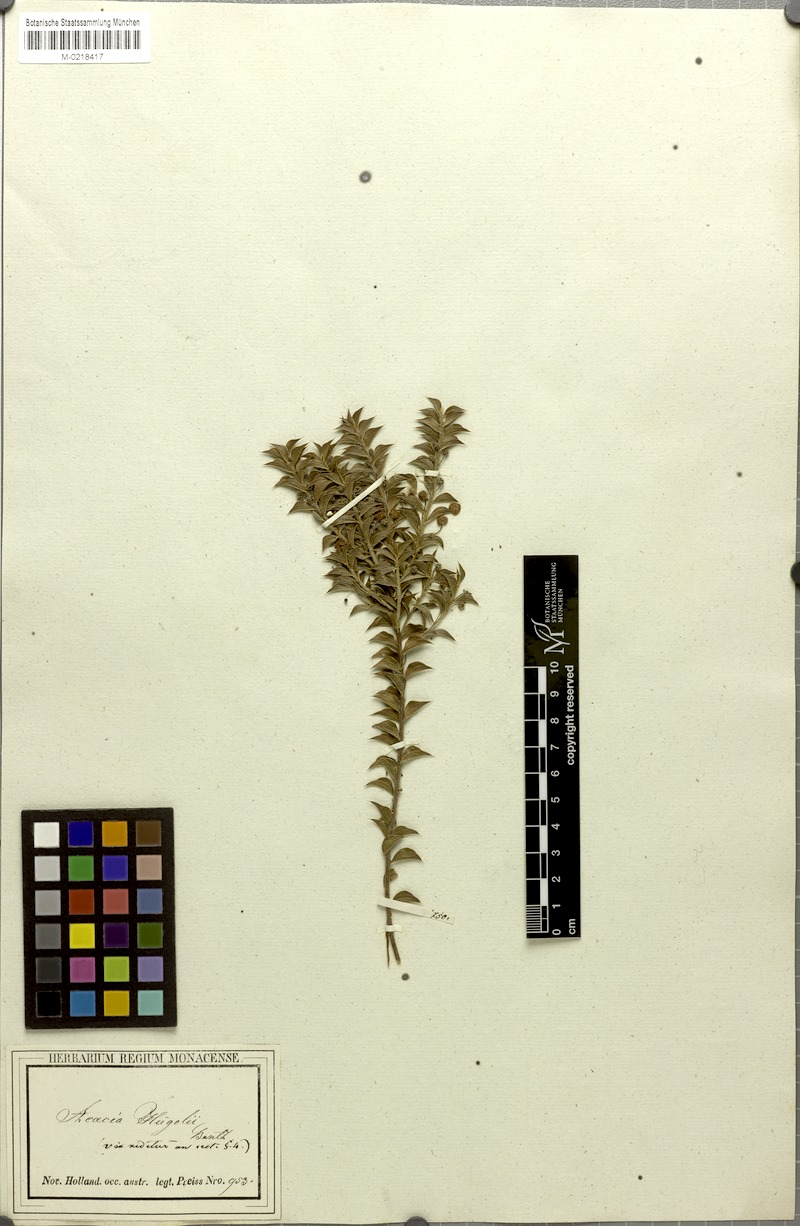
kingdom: Plantae
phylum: Tracheophyta
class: Magnoliopsida
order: Fabales
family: Fabaceae
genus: Acacia
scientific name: Acacia huegelii
